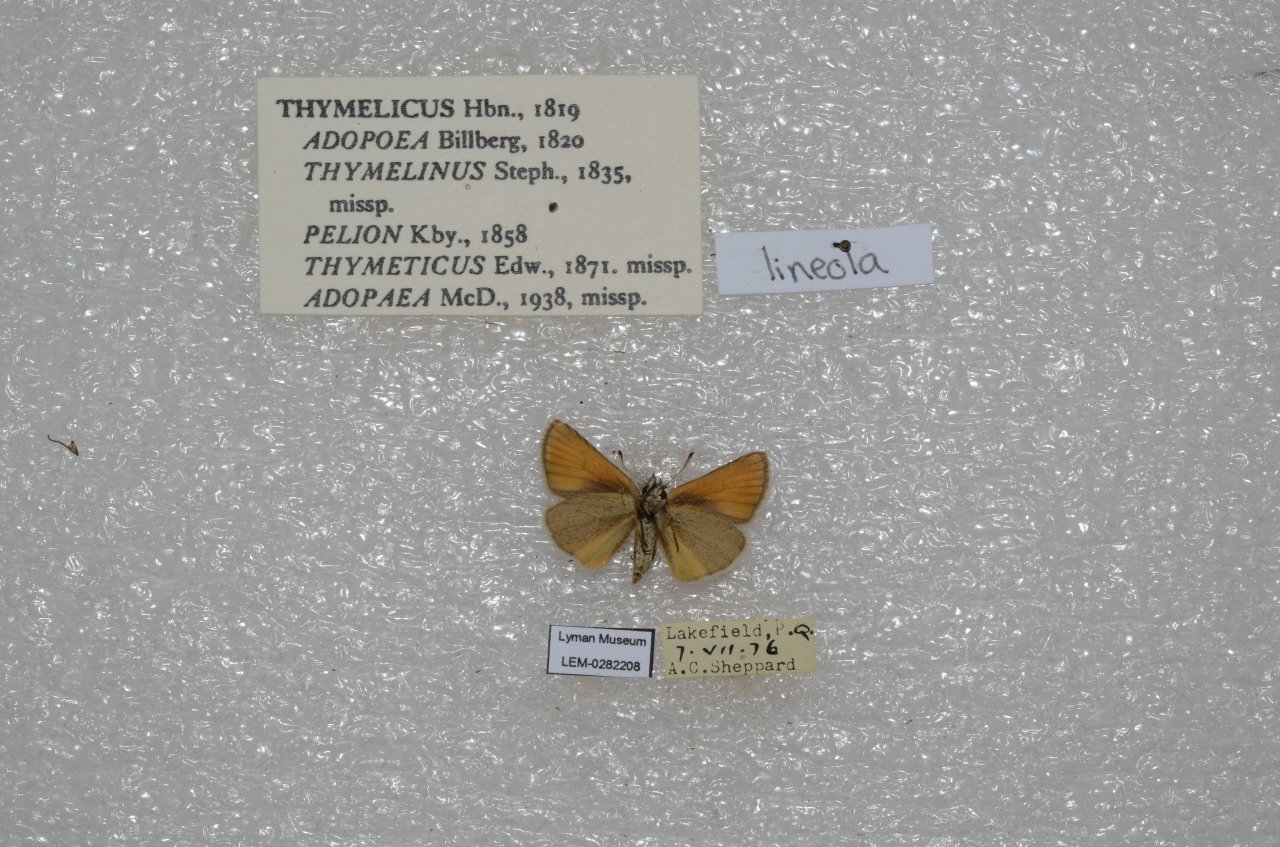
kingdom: Animalia
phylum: Arthropoda
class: Insecta
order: Lepidoptera
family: Hesperiidae
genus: Thymelicus
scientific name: Thymelicus lineola
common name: European Skipper
